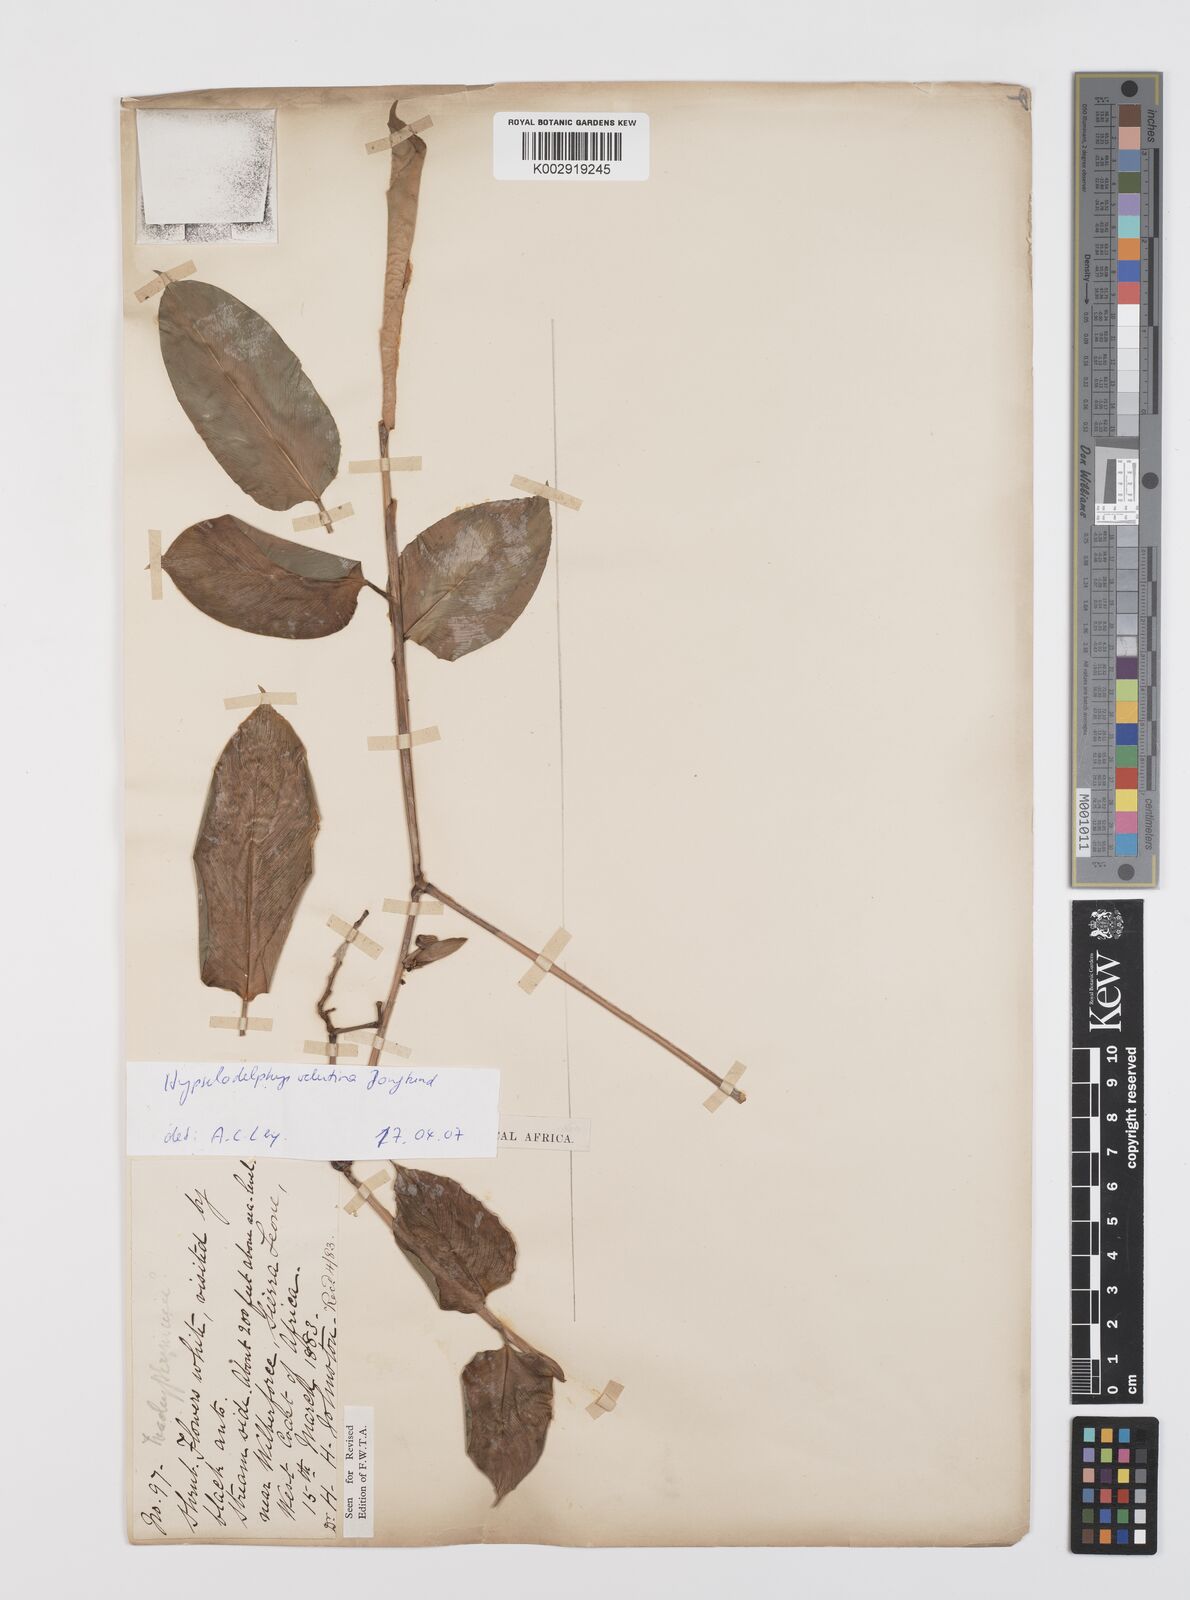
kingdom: Plantae
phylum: Tracheophyta
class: Liliopsida
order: Zingiberales
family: Marantaceae
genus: Hypselodelphys
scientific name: Hypselodelphys velutina
